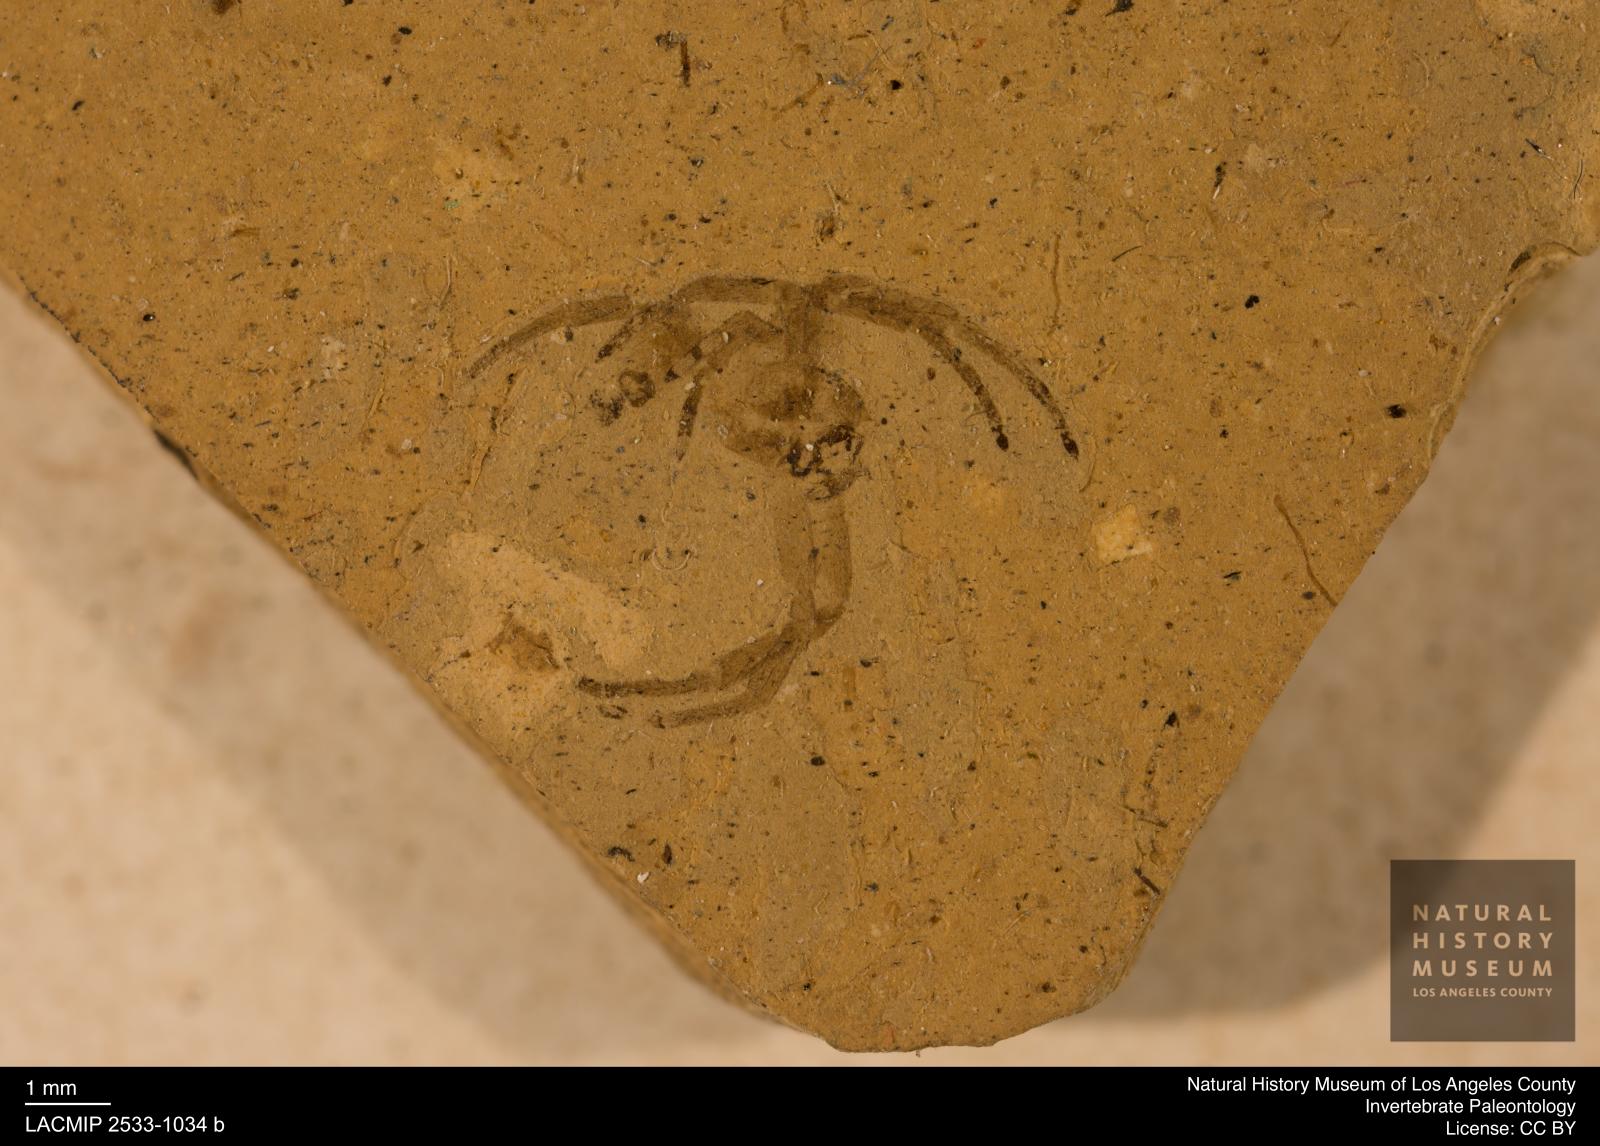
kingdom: Animalia
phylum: Arthropoda
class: Arachnida
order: Araneae
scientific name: Araneae
